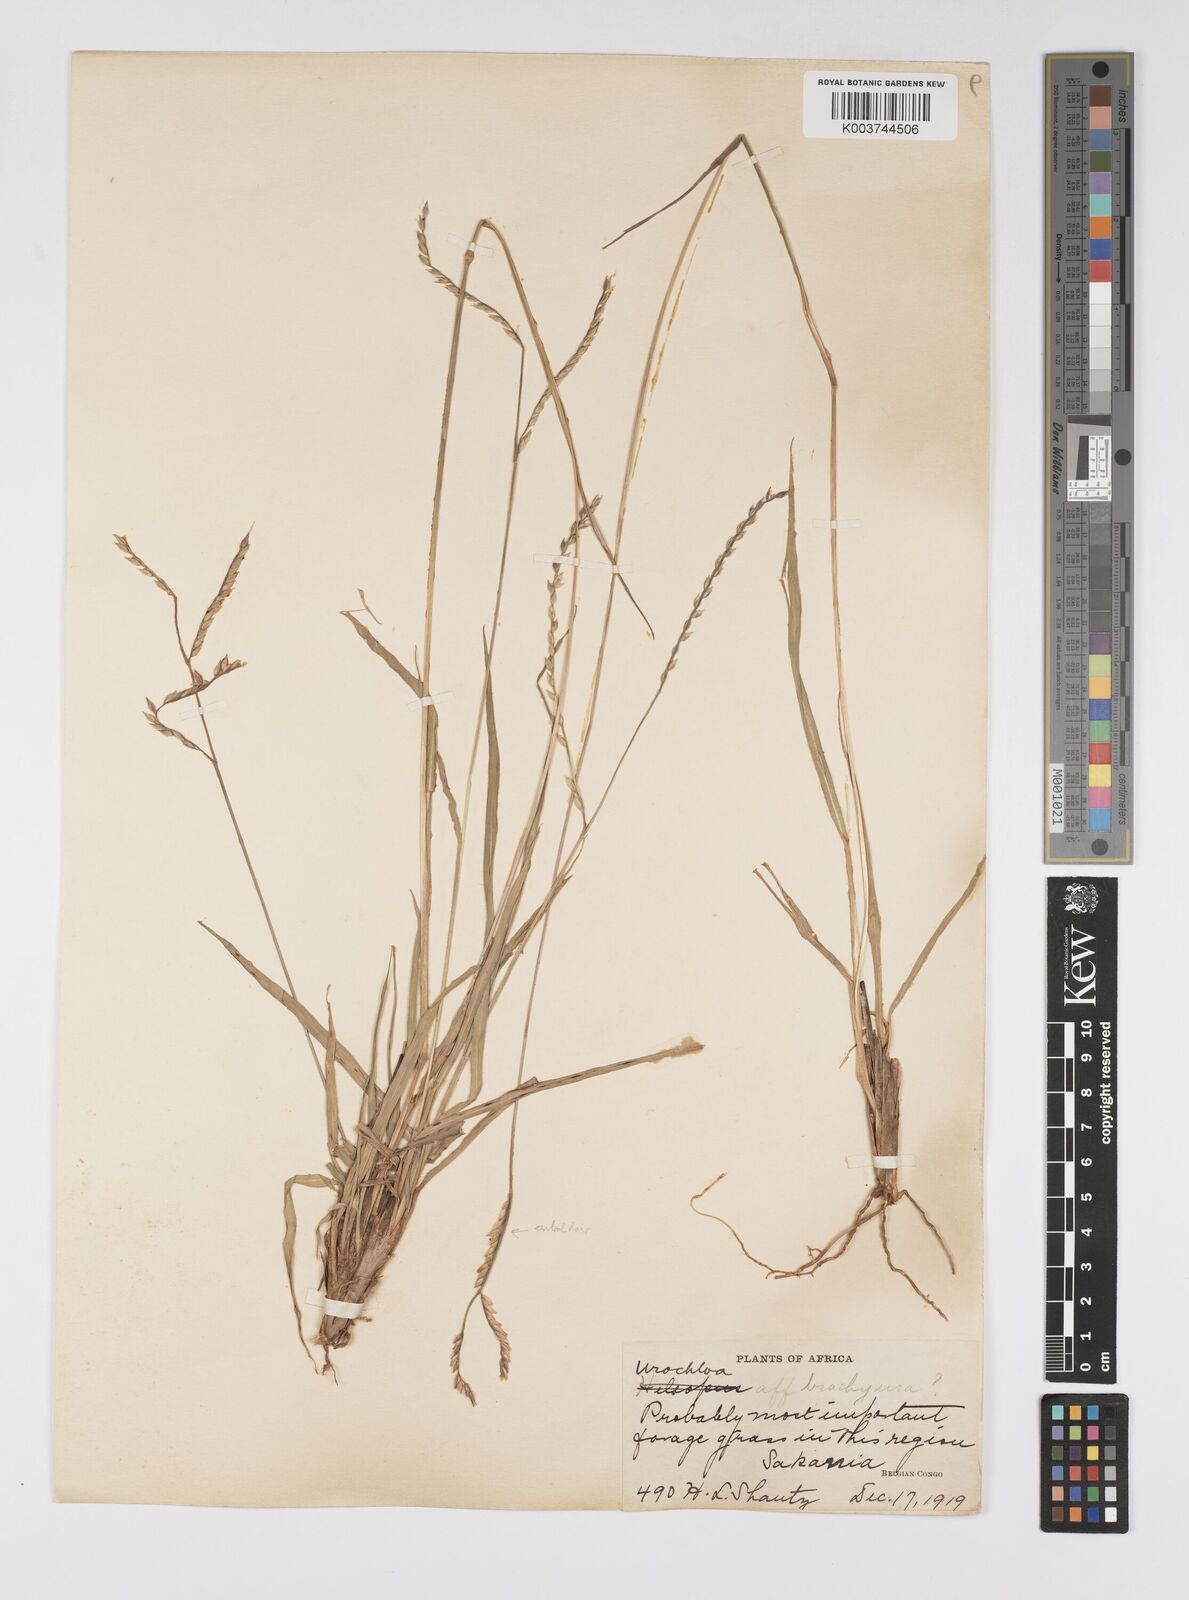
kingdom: Plantae
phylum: Tracheophyta
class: Liliopsida
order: Poales
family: Poaceae
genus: Urochloa
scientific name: Urochloa oligotricha
